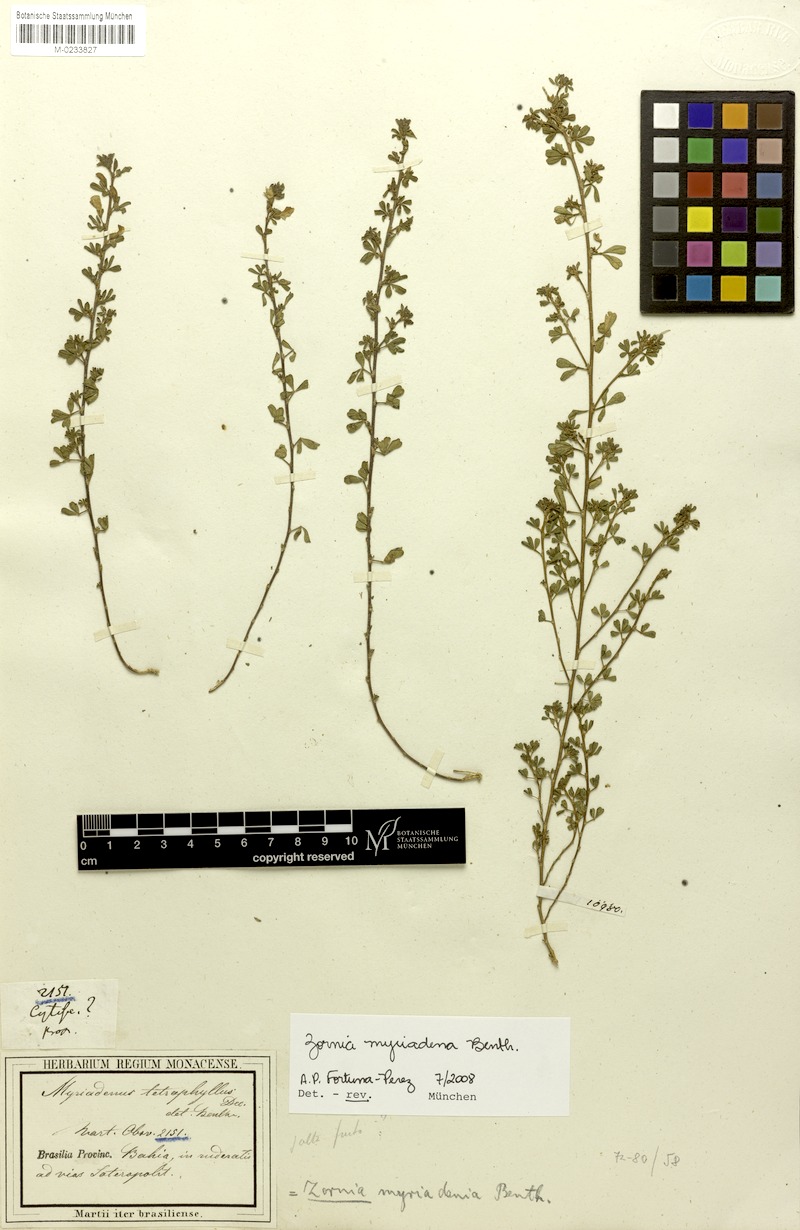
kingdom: Plantae
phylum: Tracheophyta
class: Magnoliopsida
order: Fabales
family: Fabaceae
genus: Zornia
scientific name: Zornia myriadena
